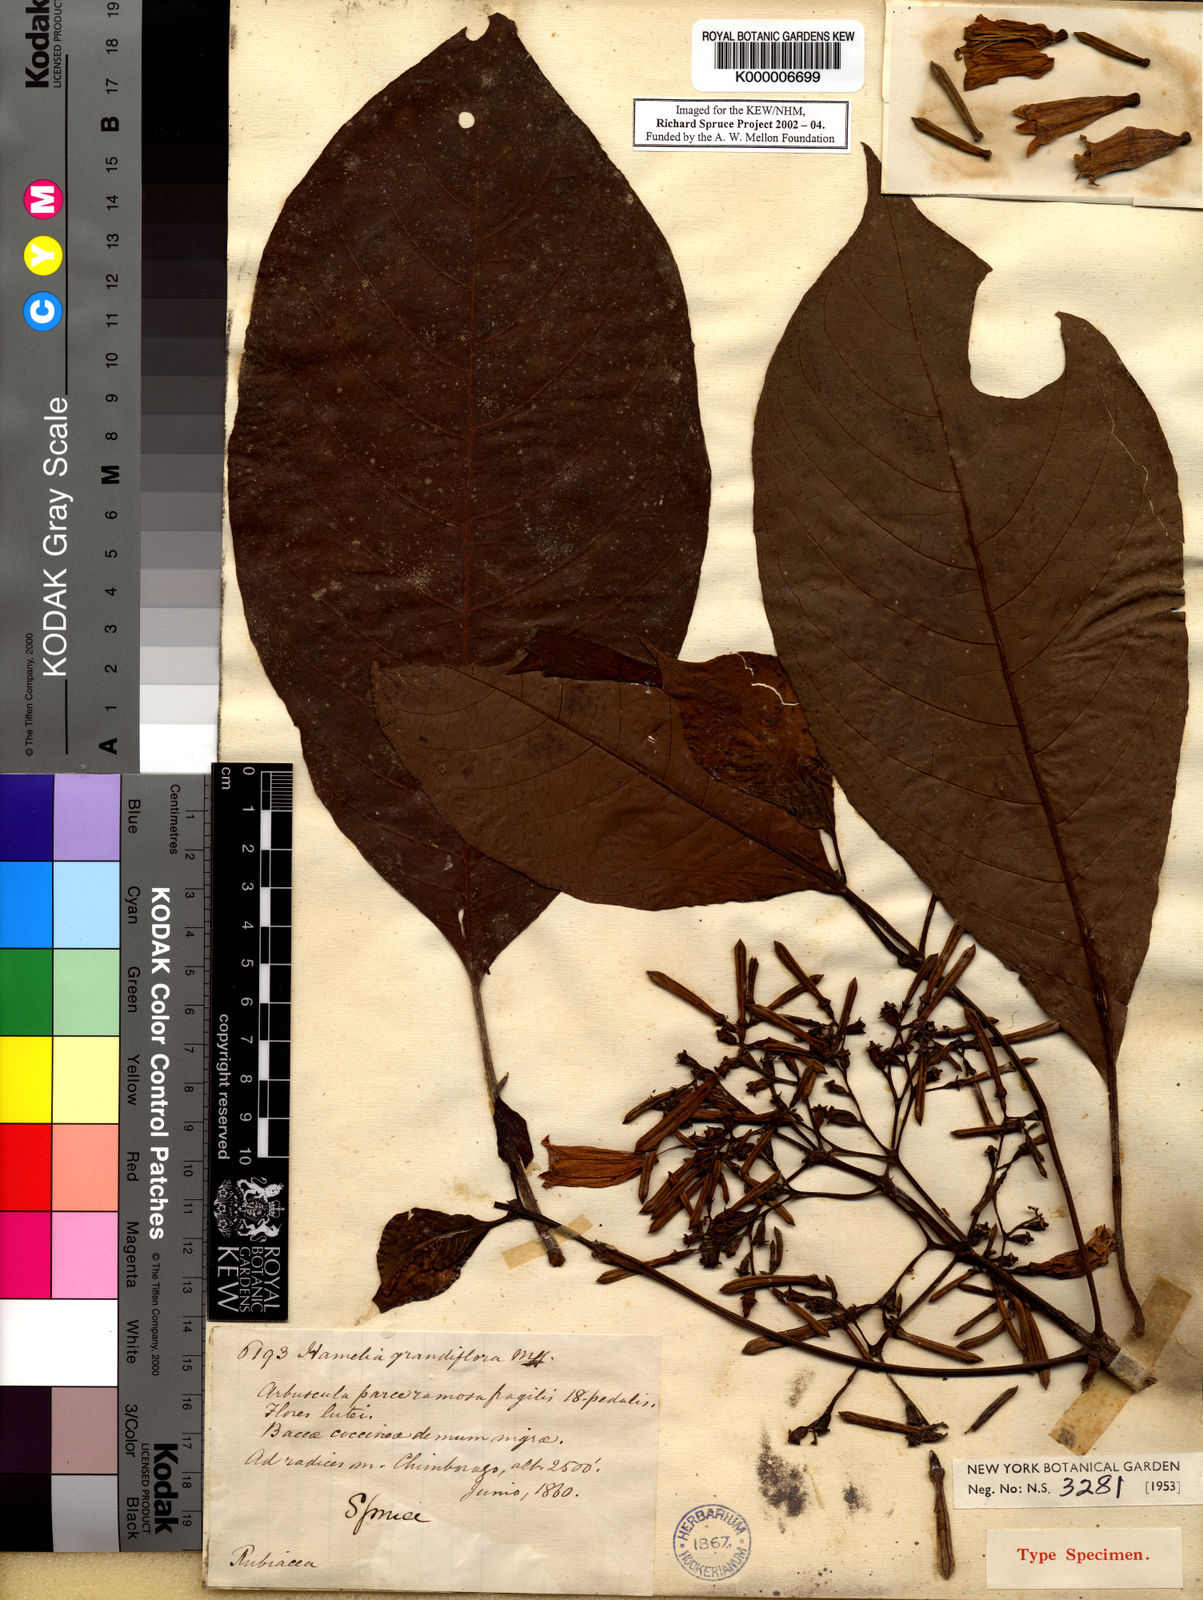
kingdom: Plantae
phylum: Tracheophyta
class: Magnoliopsida
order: Gentianales
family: Rubiaceae
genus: Hamelia
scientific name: Hamelia macrantha
